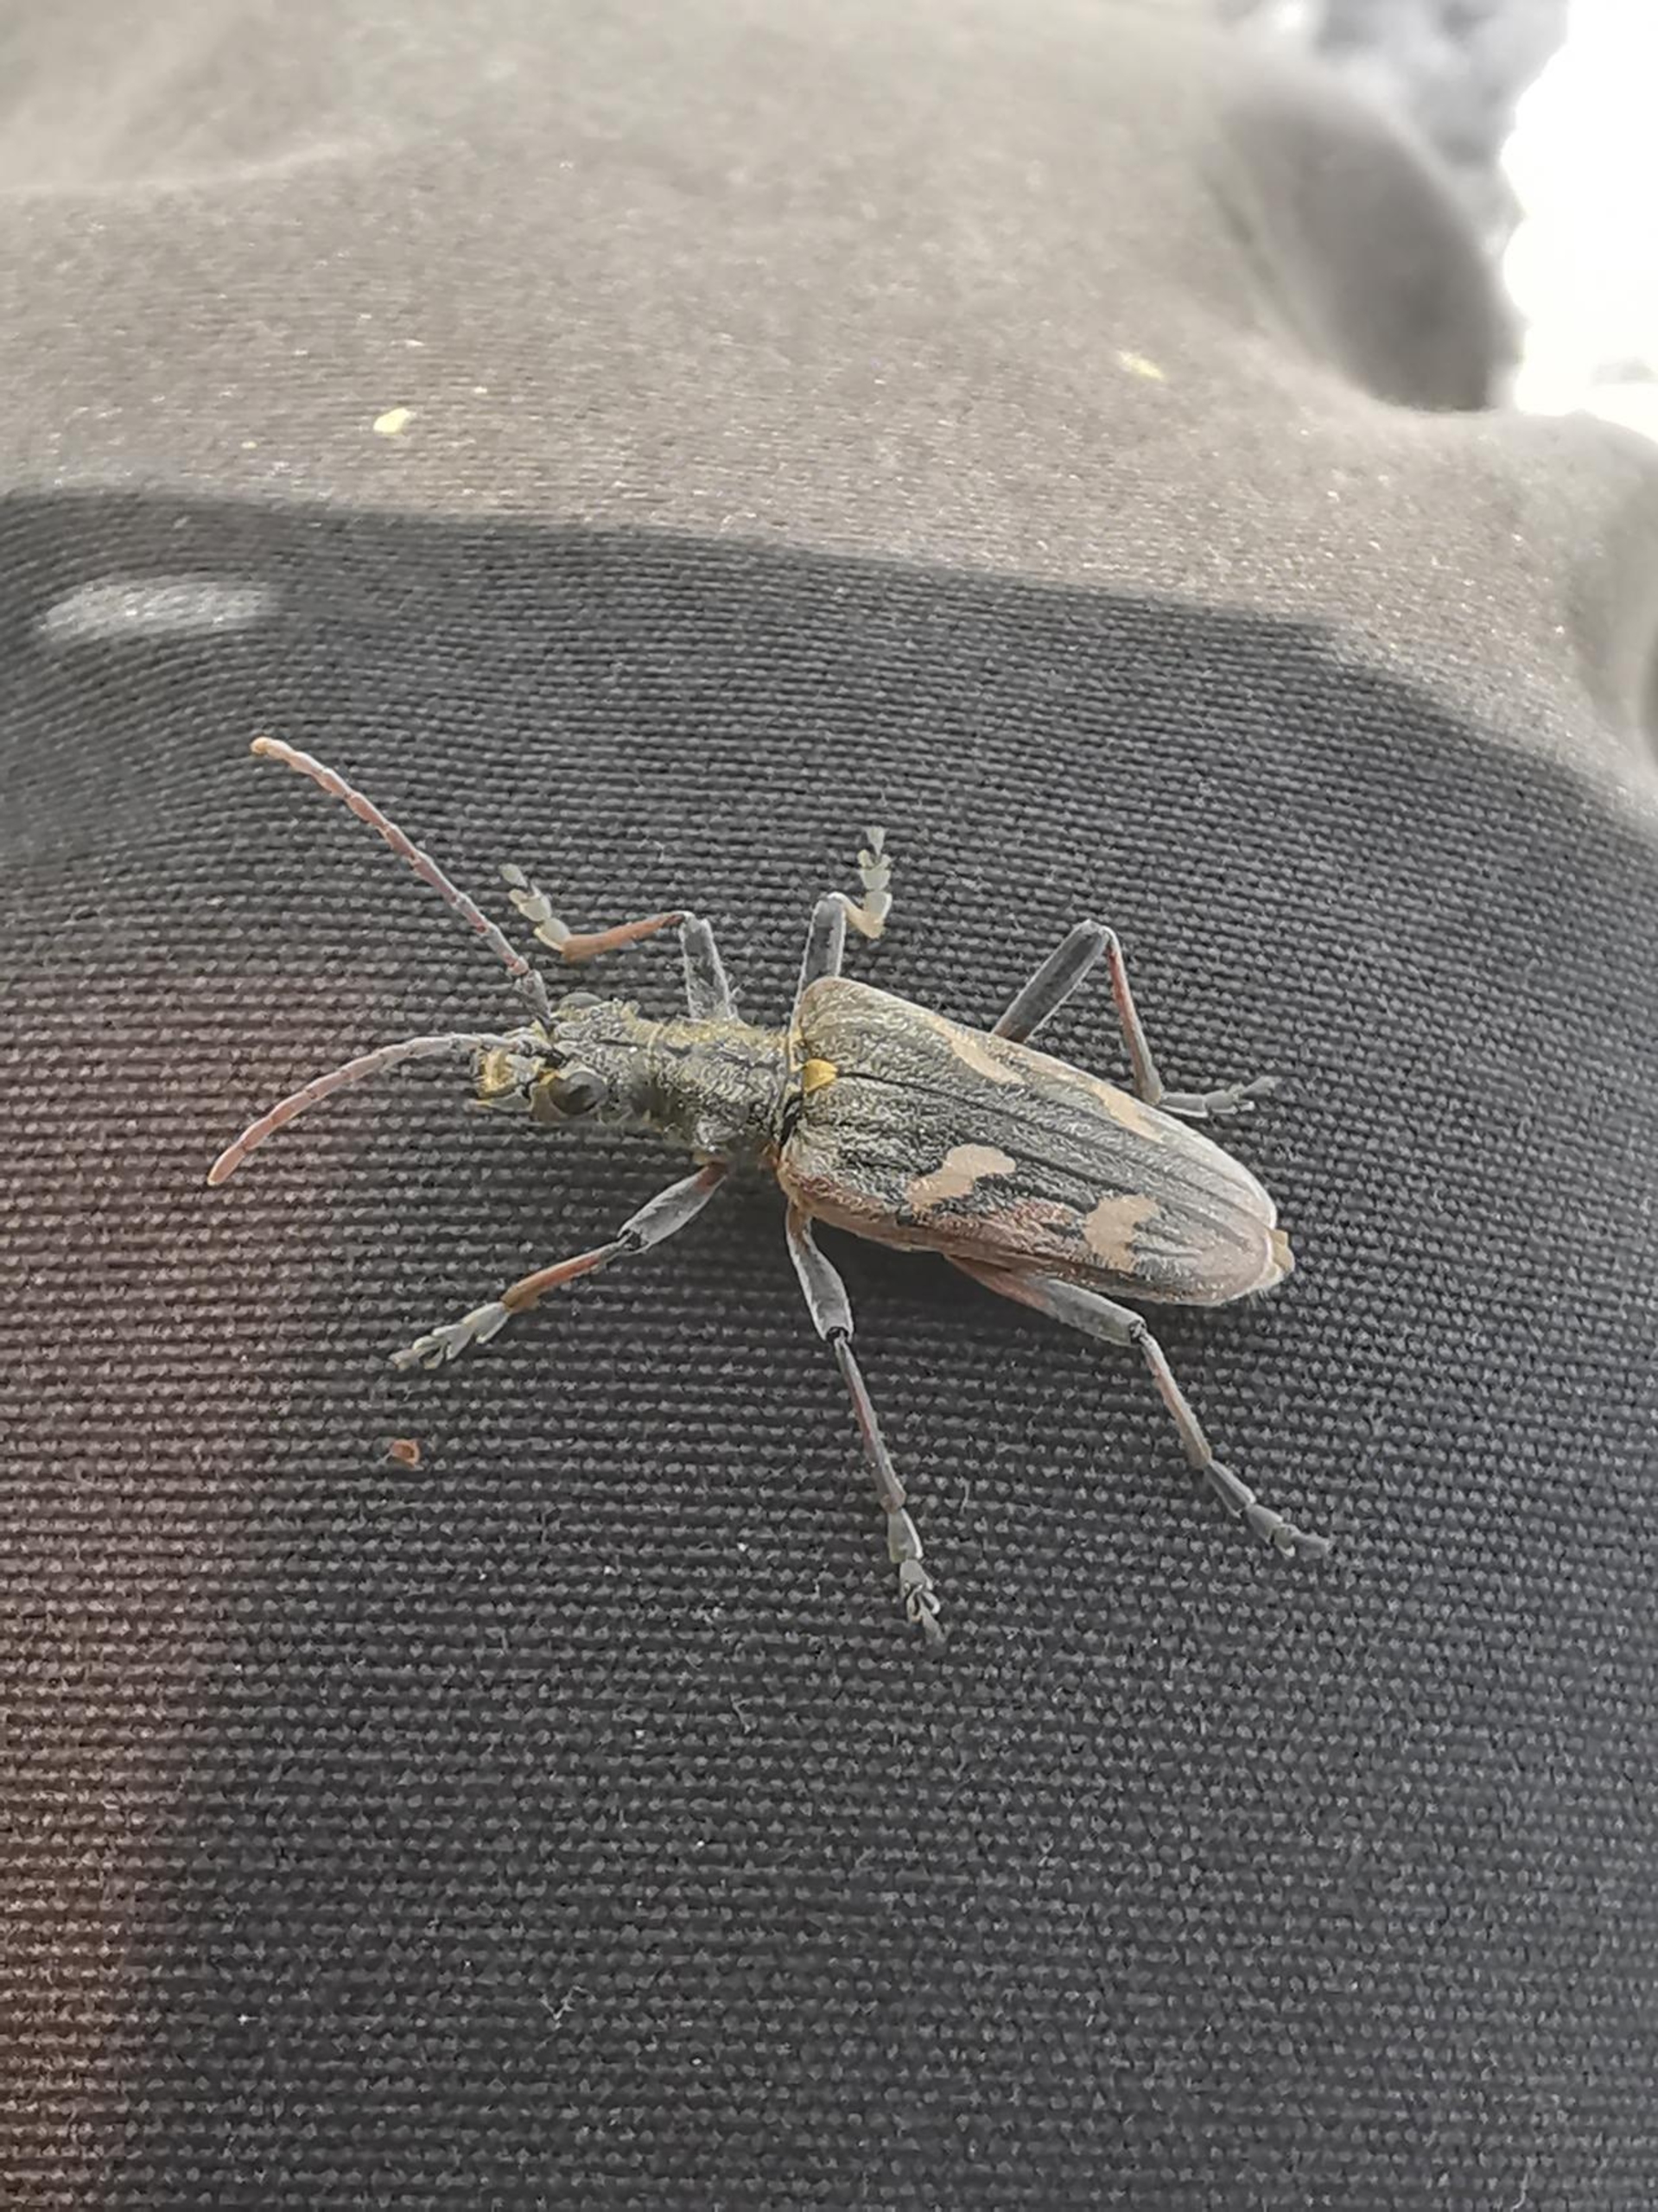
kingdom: Animalia
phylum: Arthropoda
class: Insecta
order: Coleoptera
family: Cerambycidae
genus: Rhagium
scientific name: Rhagium bifasciatum
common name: Båndet tandbuk
